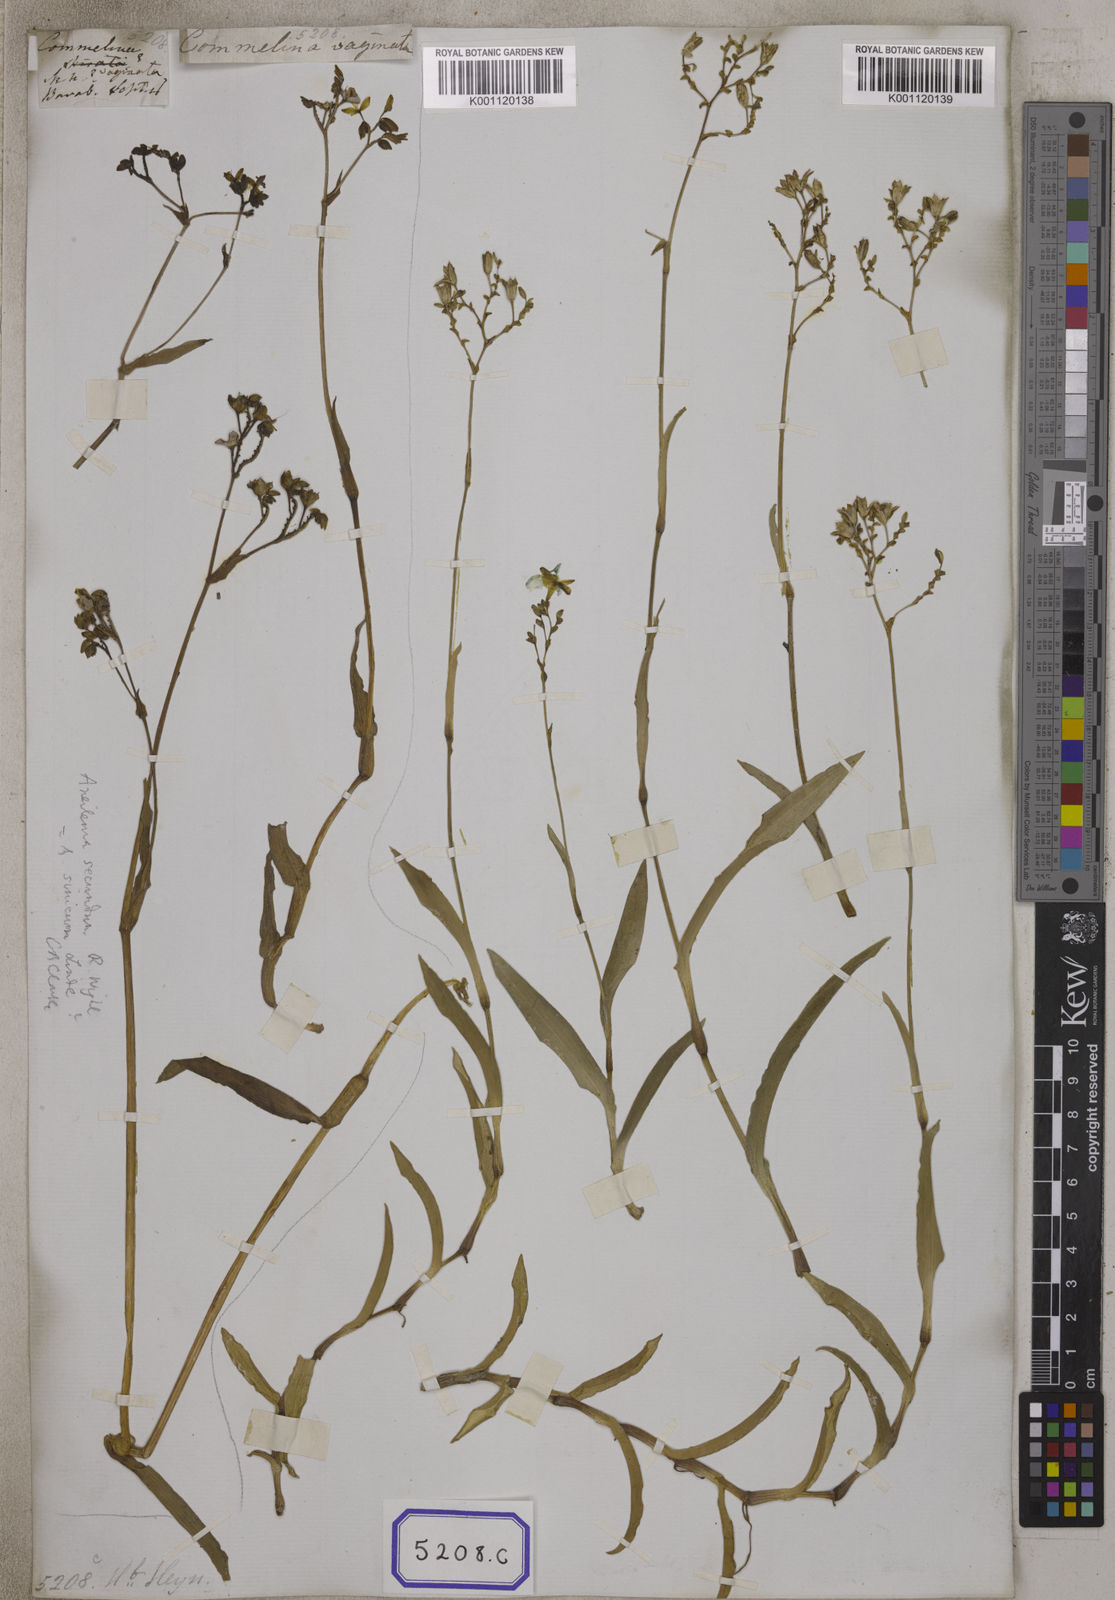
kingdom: Plantae
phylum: Tracheophyta
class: Liliopsida
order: Commelinales
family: Commelinaceae
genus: Aneilema
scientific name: Aneilema
